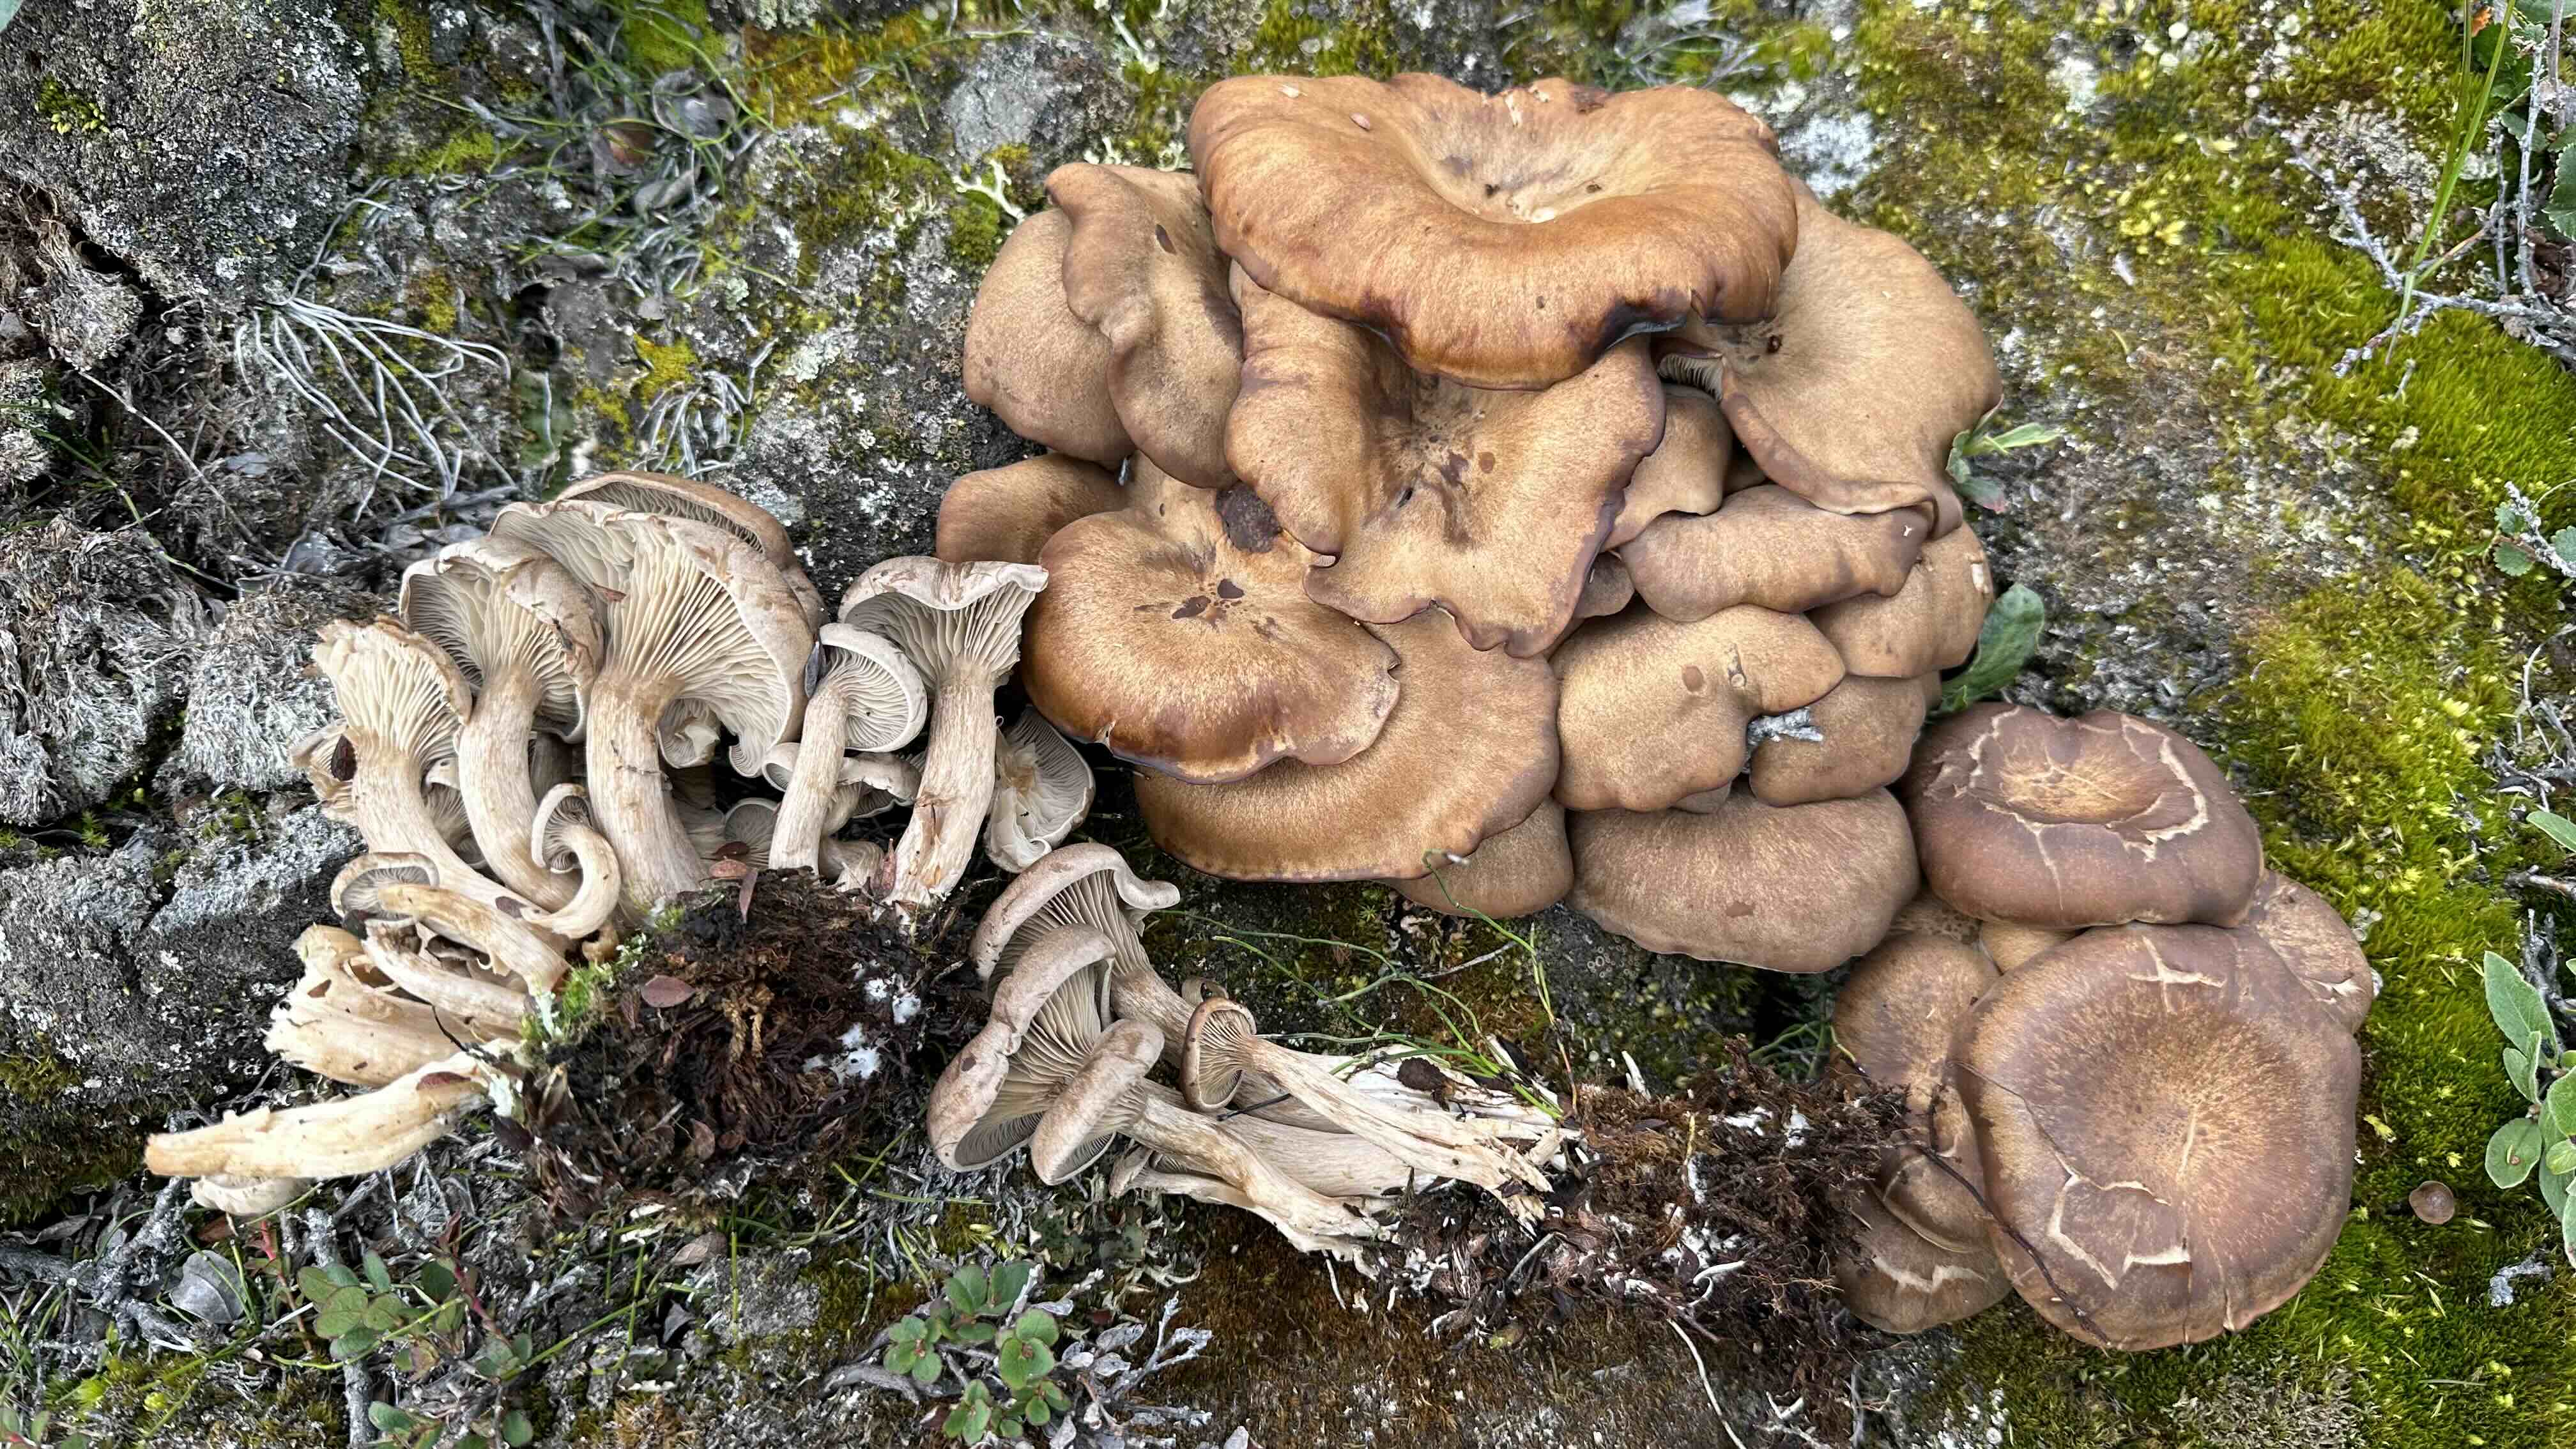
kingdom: Fungi
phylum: Basidiomycota
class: Agaricomycetes
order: Agaricales
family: Tricholomataceae
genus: Lepista
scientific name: Lepista
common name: hekseringshat
